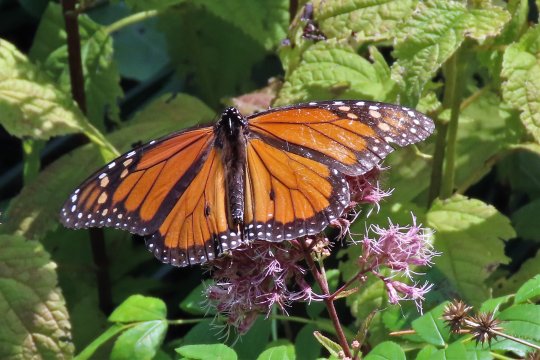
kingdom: Animalia
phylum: Arthropoda
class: Insecta
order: Lepidoptera
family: Nymphalidae
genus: Danaus
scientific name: Danaus plexippus
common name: Monarch
